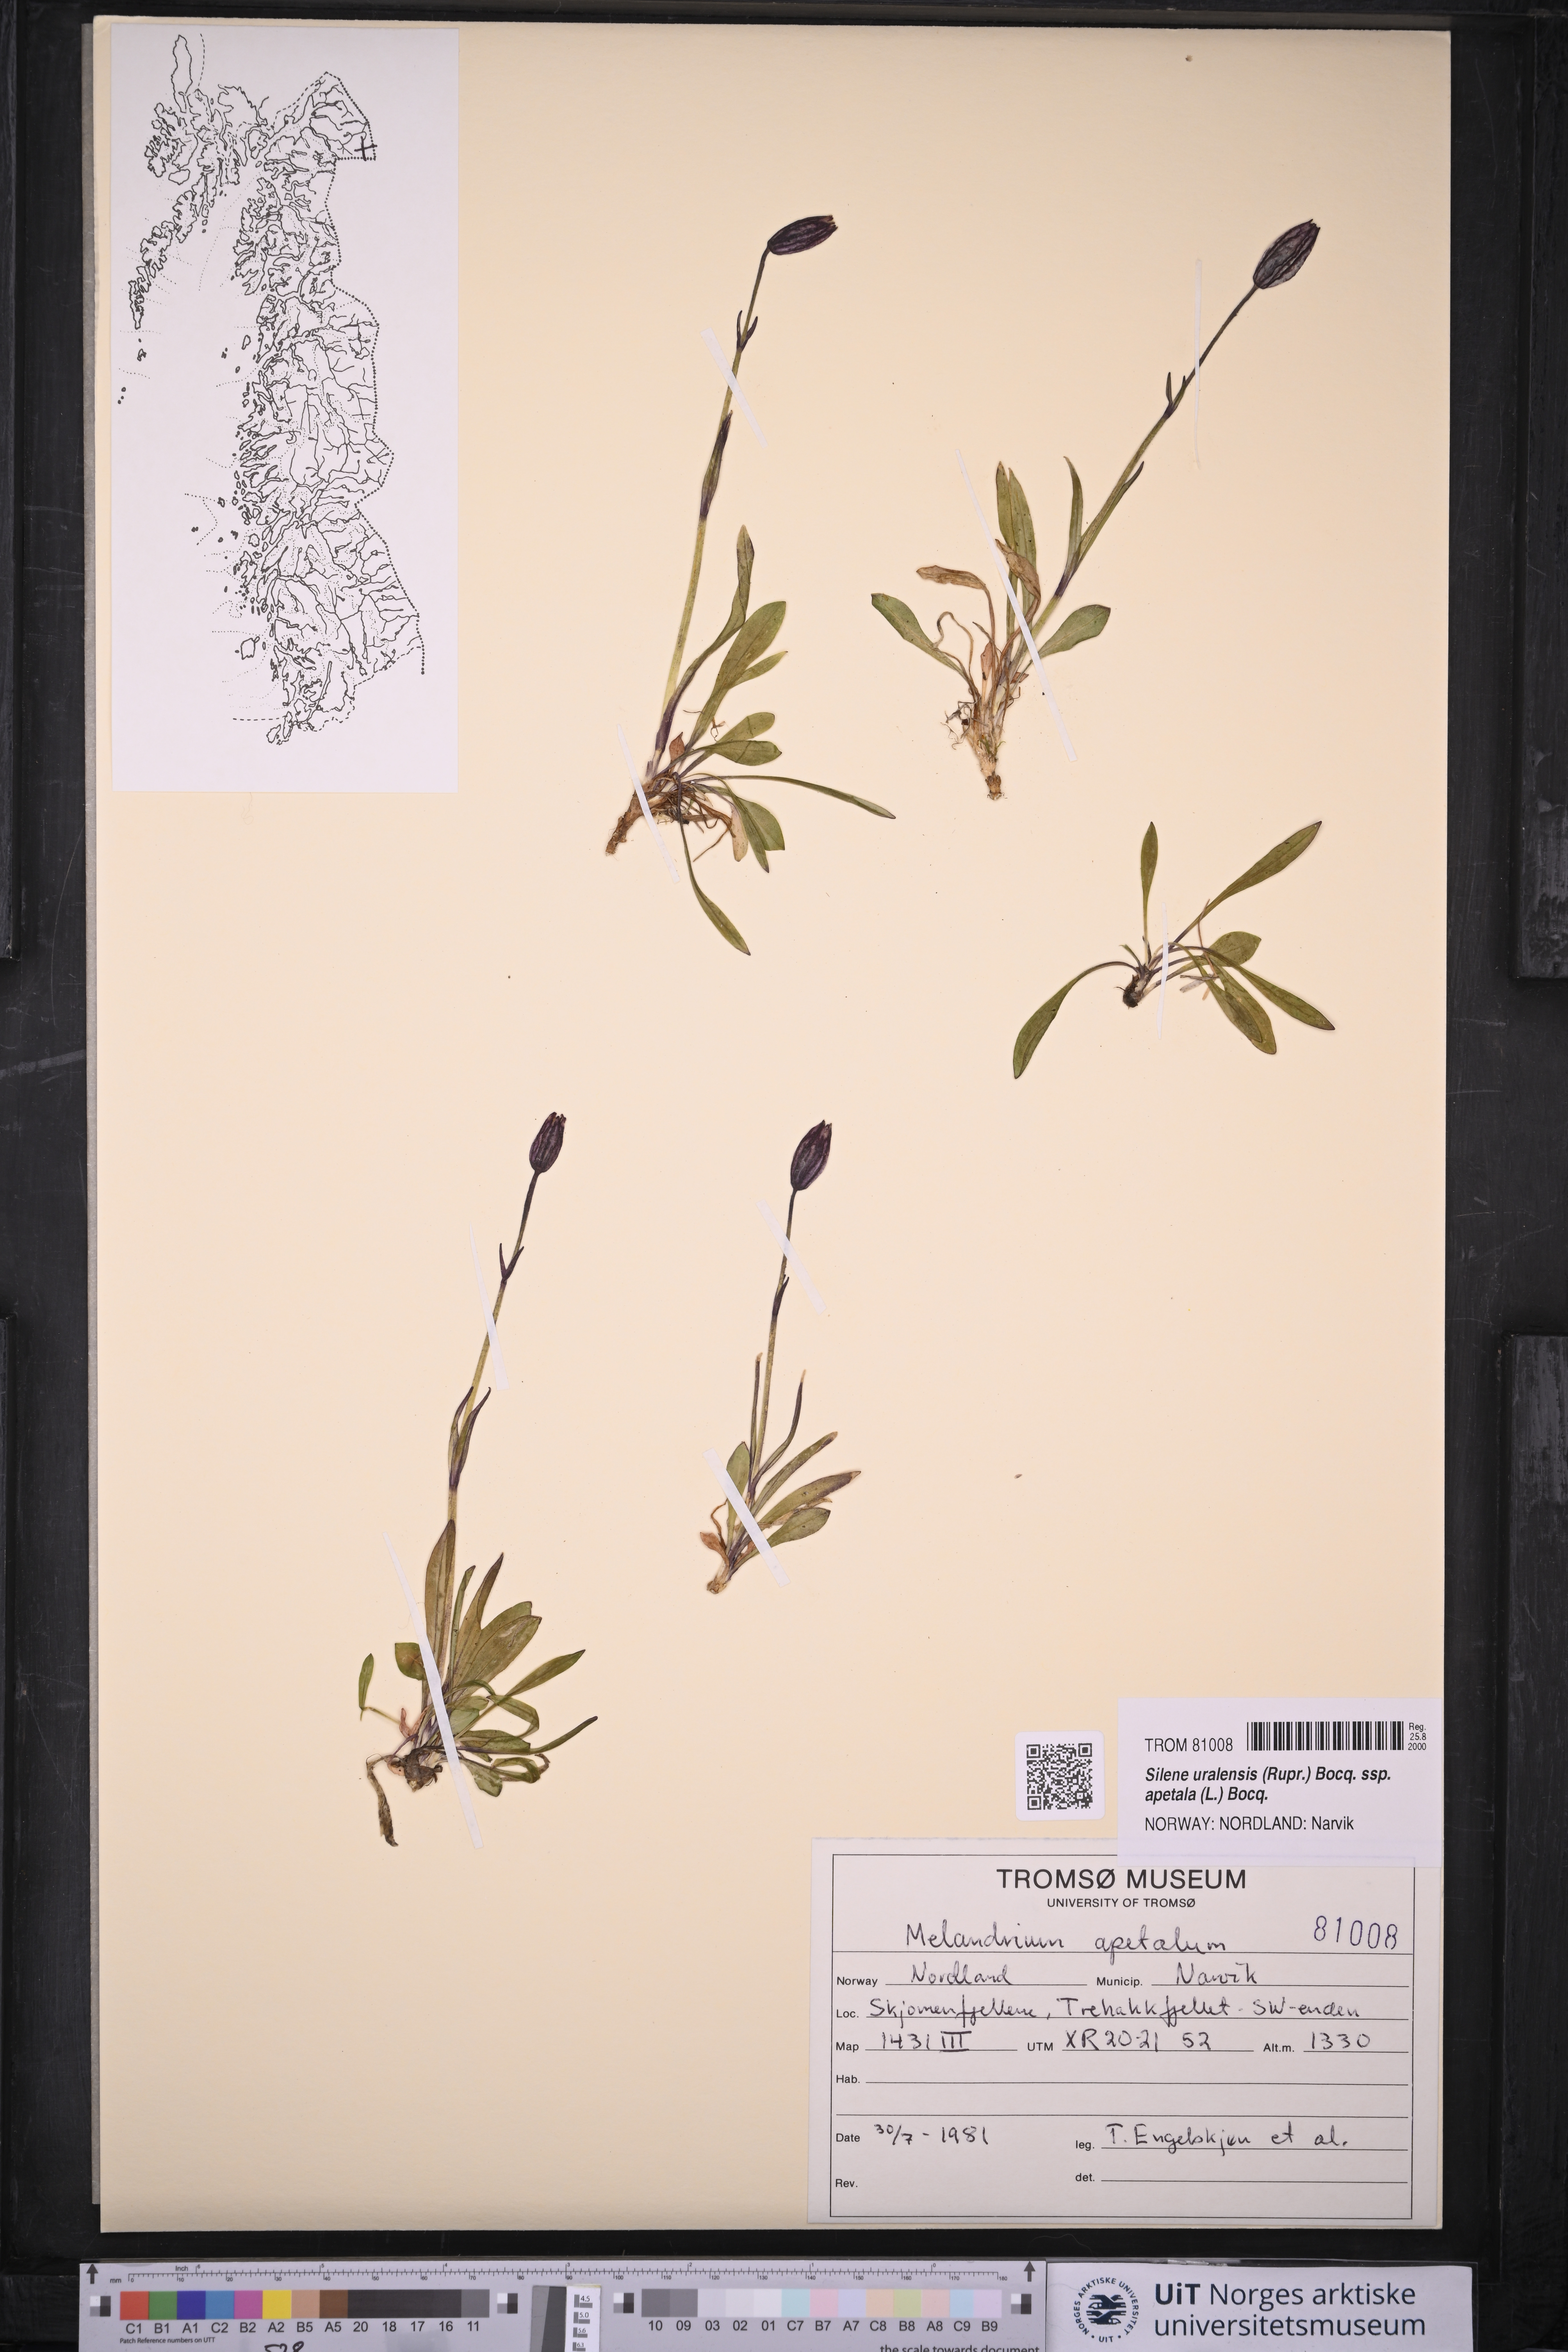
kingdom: Plantae
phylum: Tracheophyta
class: Magnoliopsida
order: Caryophyllales
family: Caryophyllaceae
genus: Silene
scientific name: Silene wahlbergella
